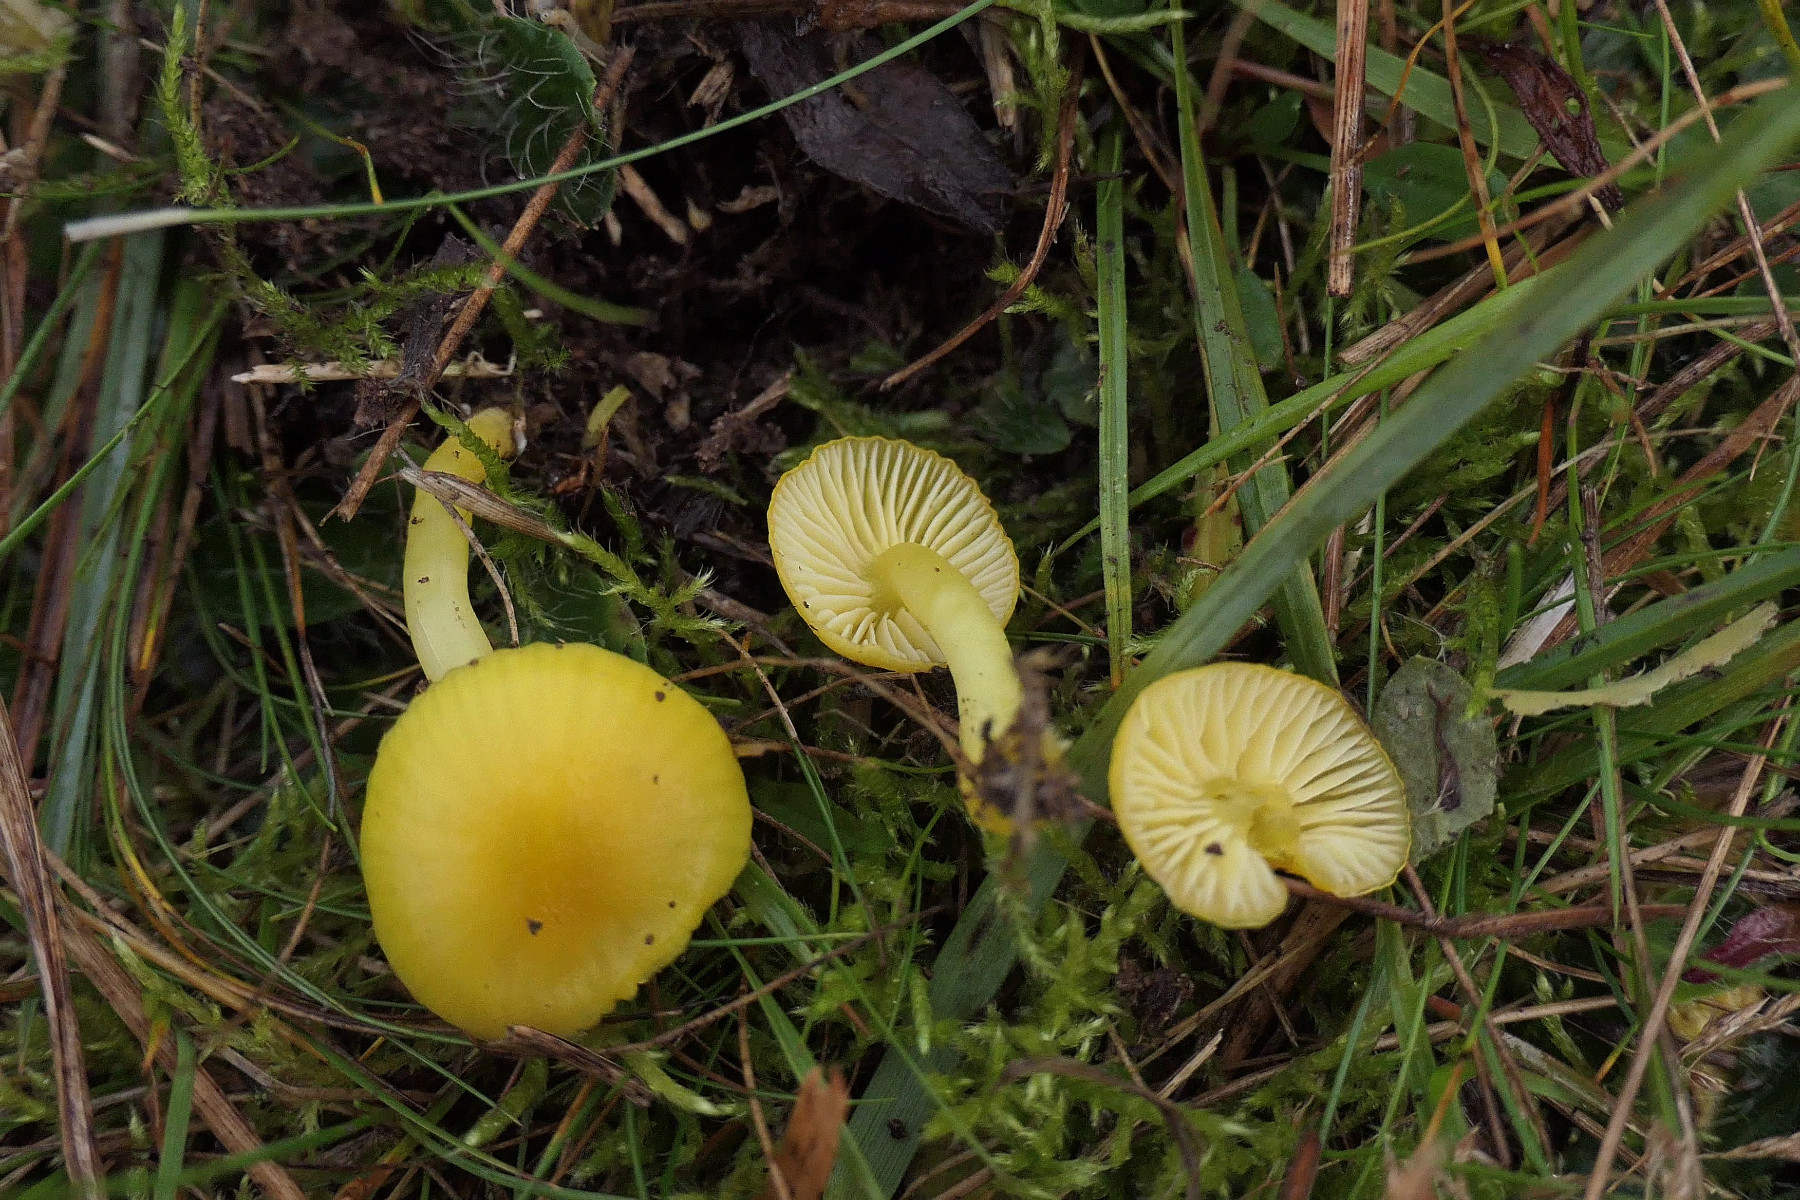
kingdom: Fungi
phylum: Basidiomycota
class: Agaricomycetes
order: Agaricales
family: Hygrophoraceae
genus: Hygrocybe
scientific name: Hygrocybe ceracea
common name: voksgul vokshat
